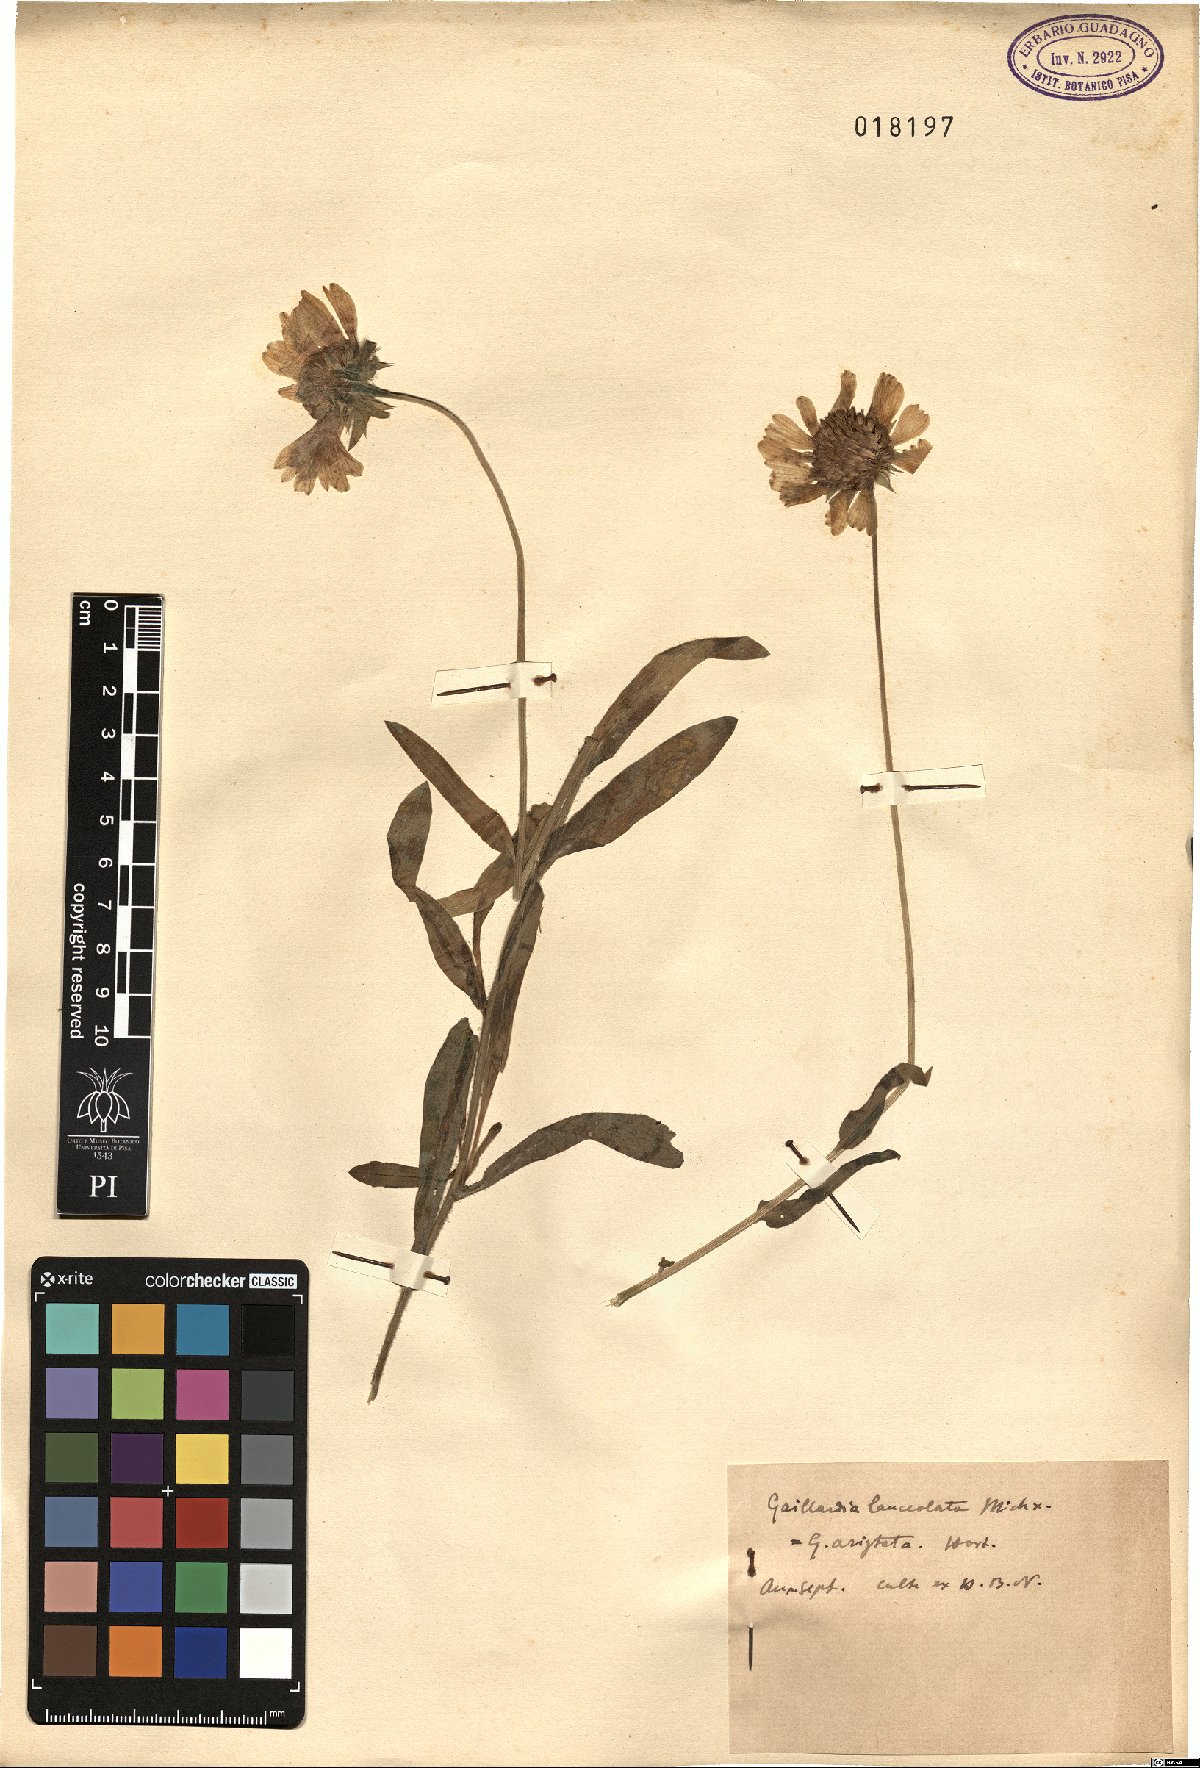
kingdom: Plantae
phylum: Tracheophyta
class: Magnoliopsida
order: Asterales
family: Asteraceae
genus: Gaillardia
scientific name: Gaillardia aestivalis
